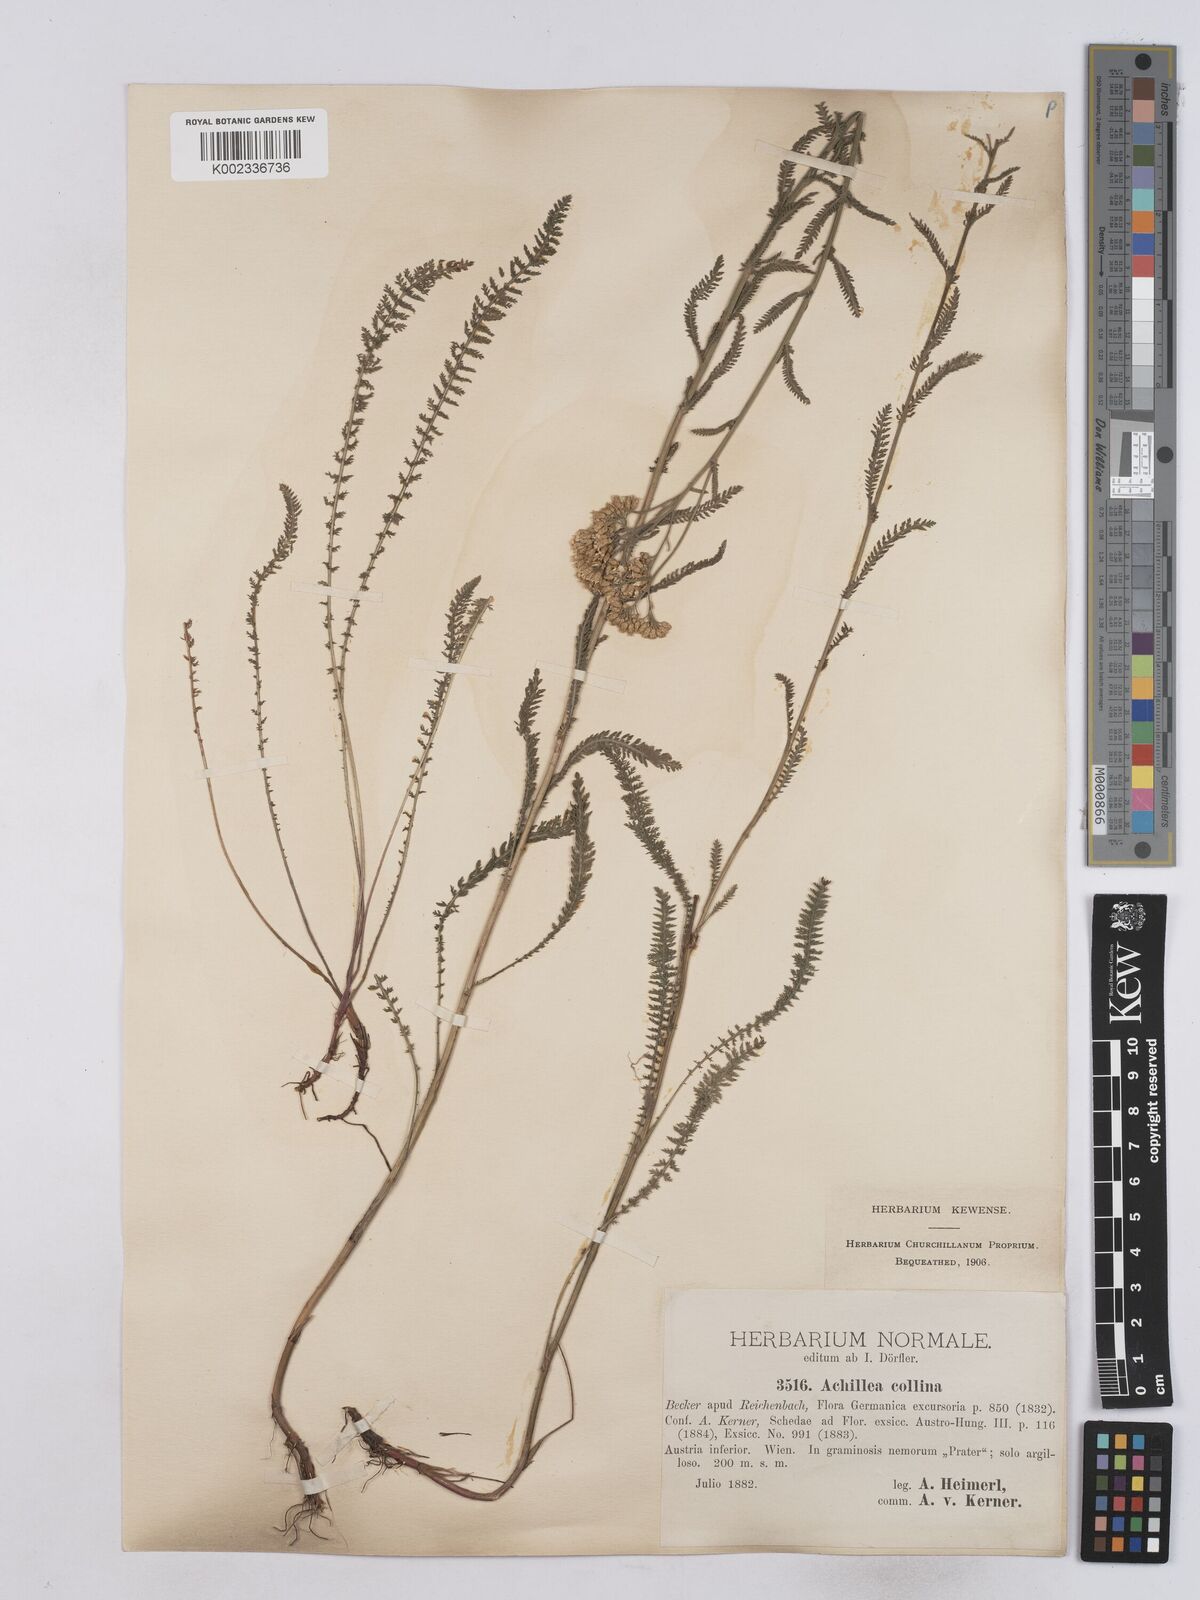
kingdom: Plantae
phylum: Tracheophyta
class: Magnoliopsida
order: Asterales
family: Asteraceae
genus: Achillea
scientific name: Achillea collina
